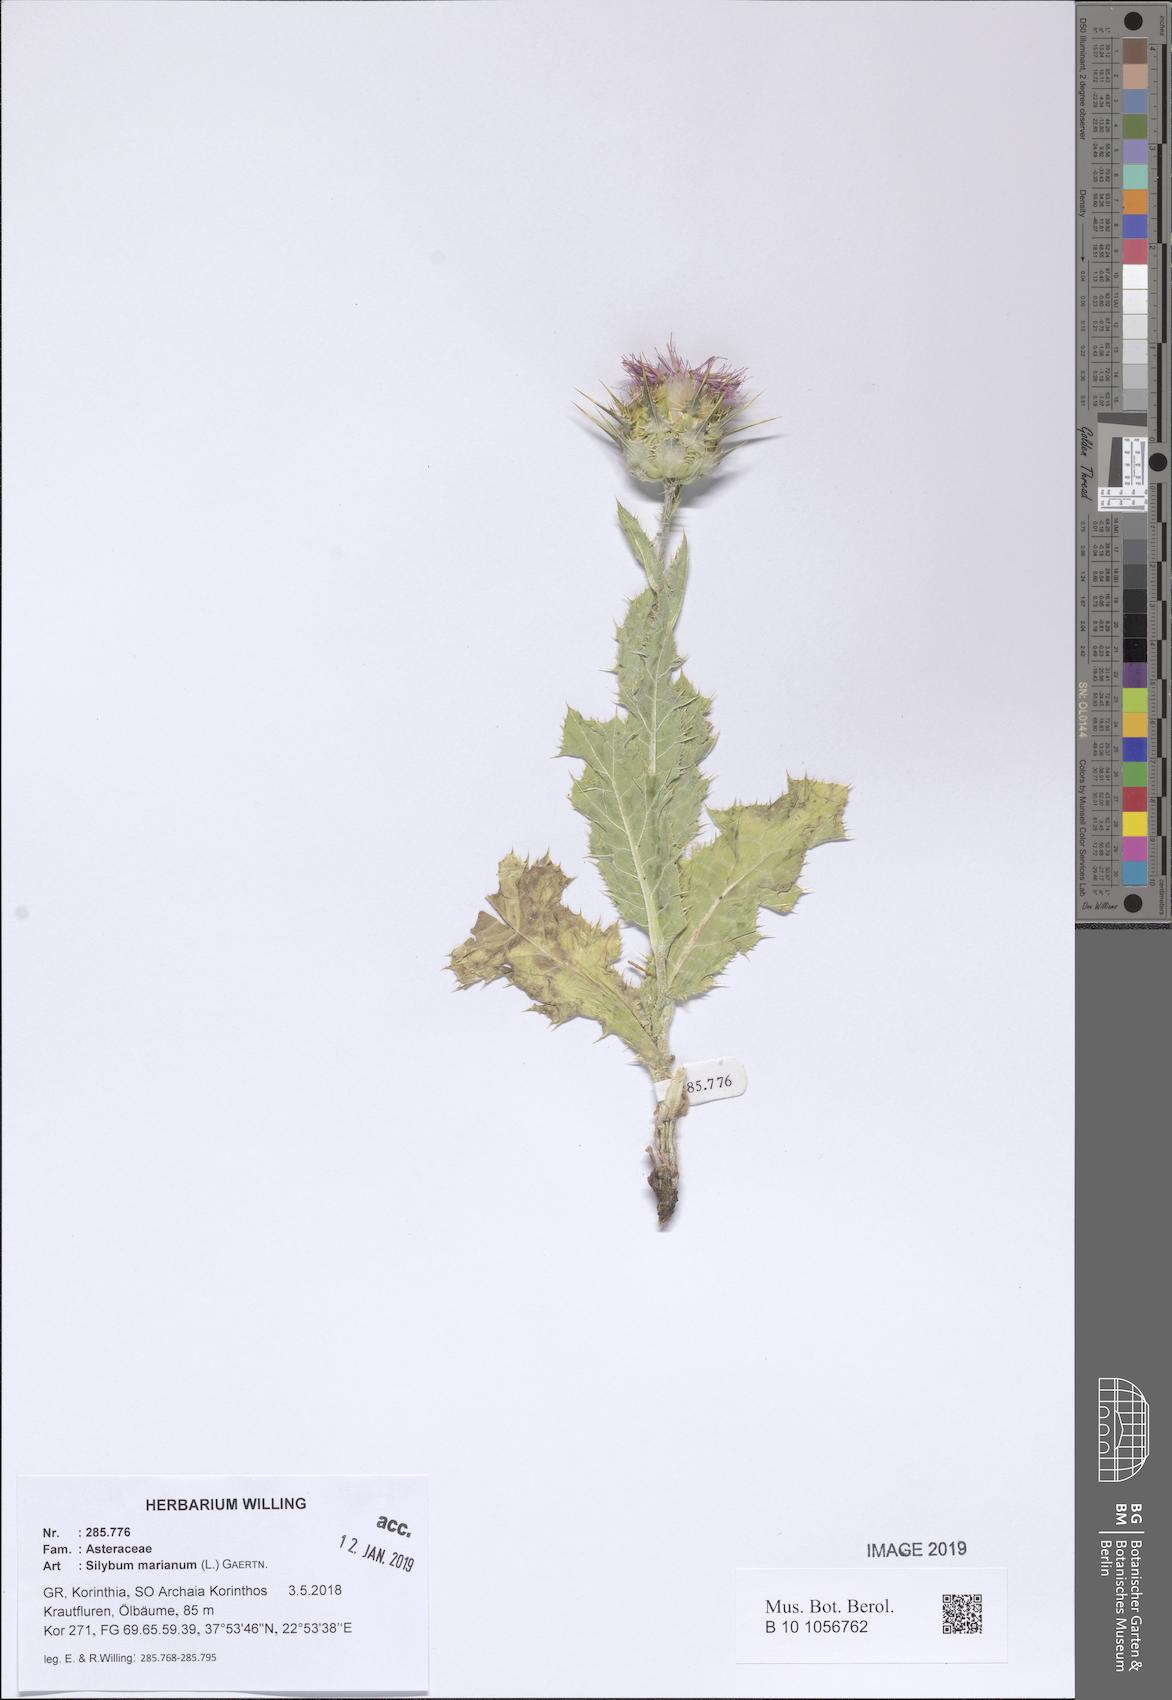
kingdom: Plantae
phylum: Tracheophyta
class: Magnoliopsida
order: Asterales
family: Asteraceae
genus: Silybum
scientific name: Silybum marianum
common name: Milk thistle
